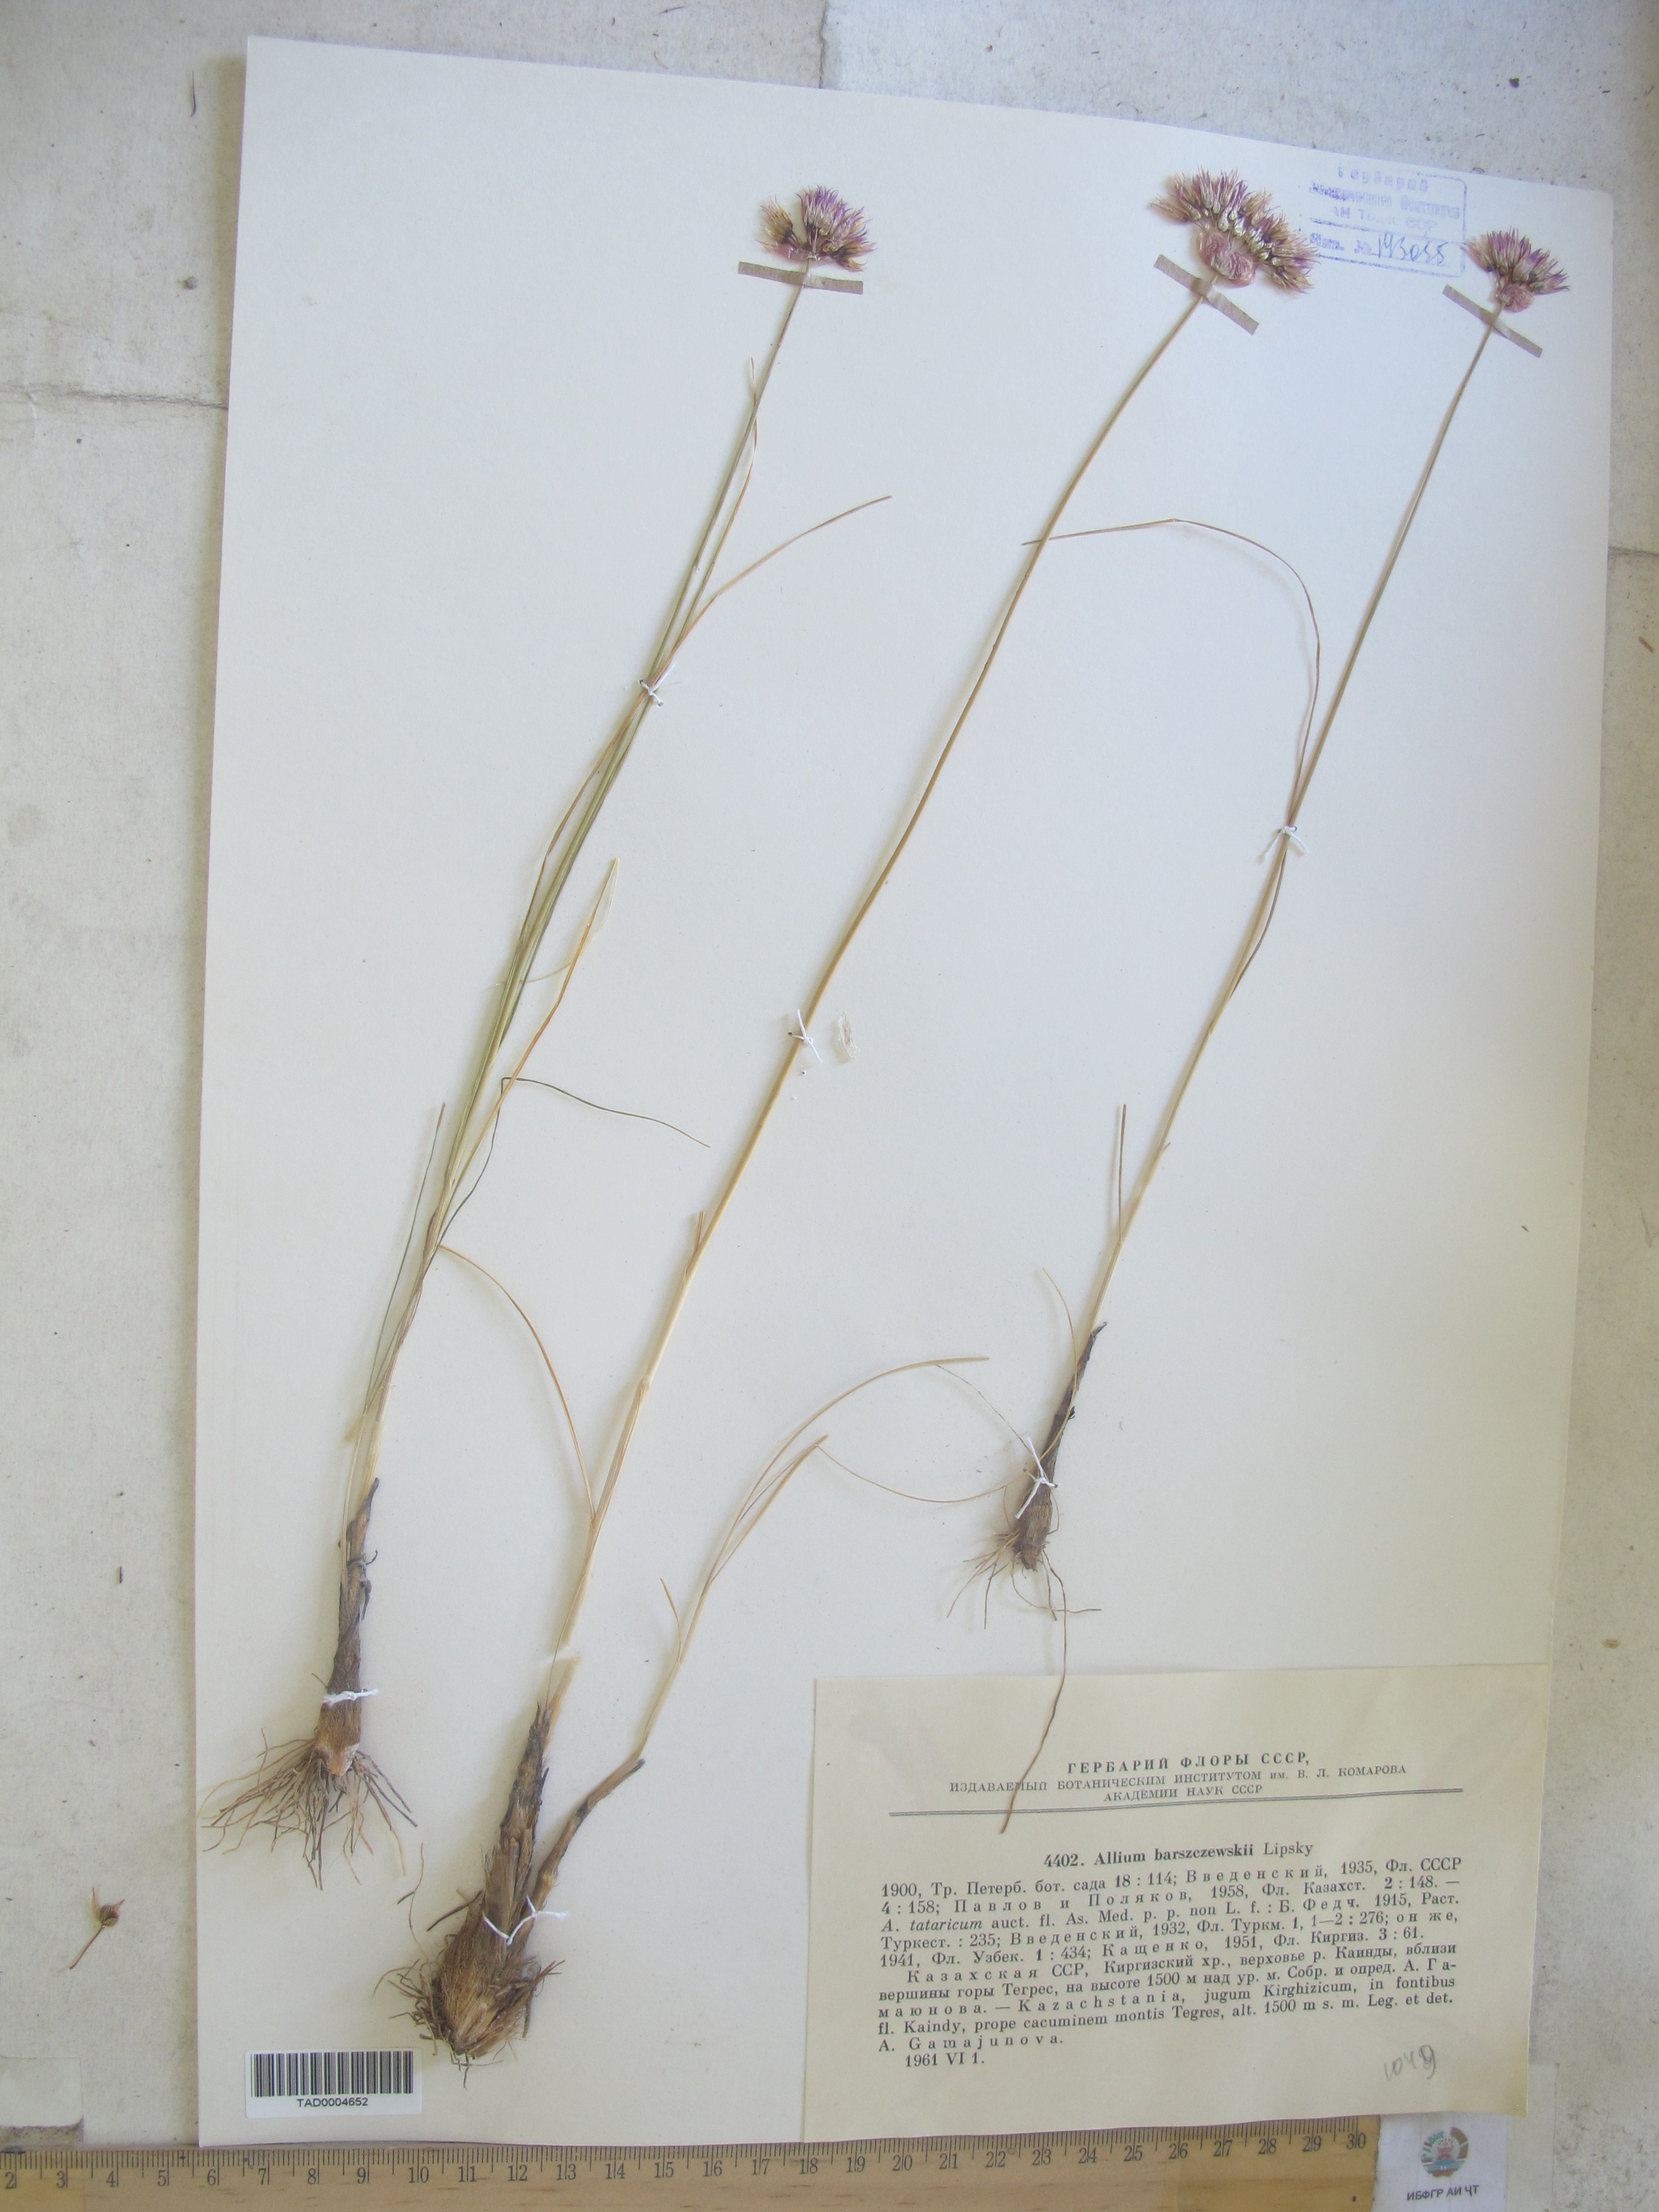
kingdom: Plantae
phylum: Tracheophyta
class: Liliopsida
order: Asparagales
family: Amaryllidaceae
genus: Allium
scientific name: Allium barsczewskii
